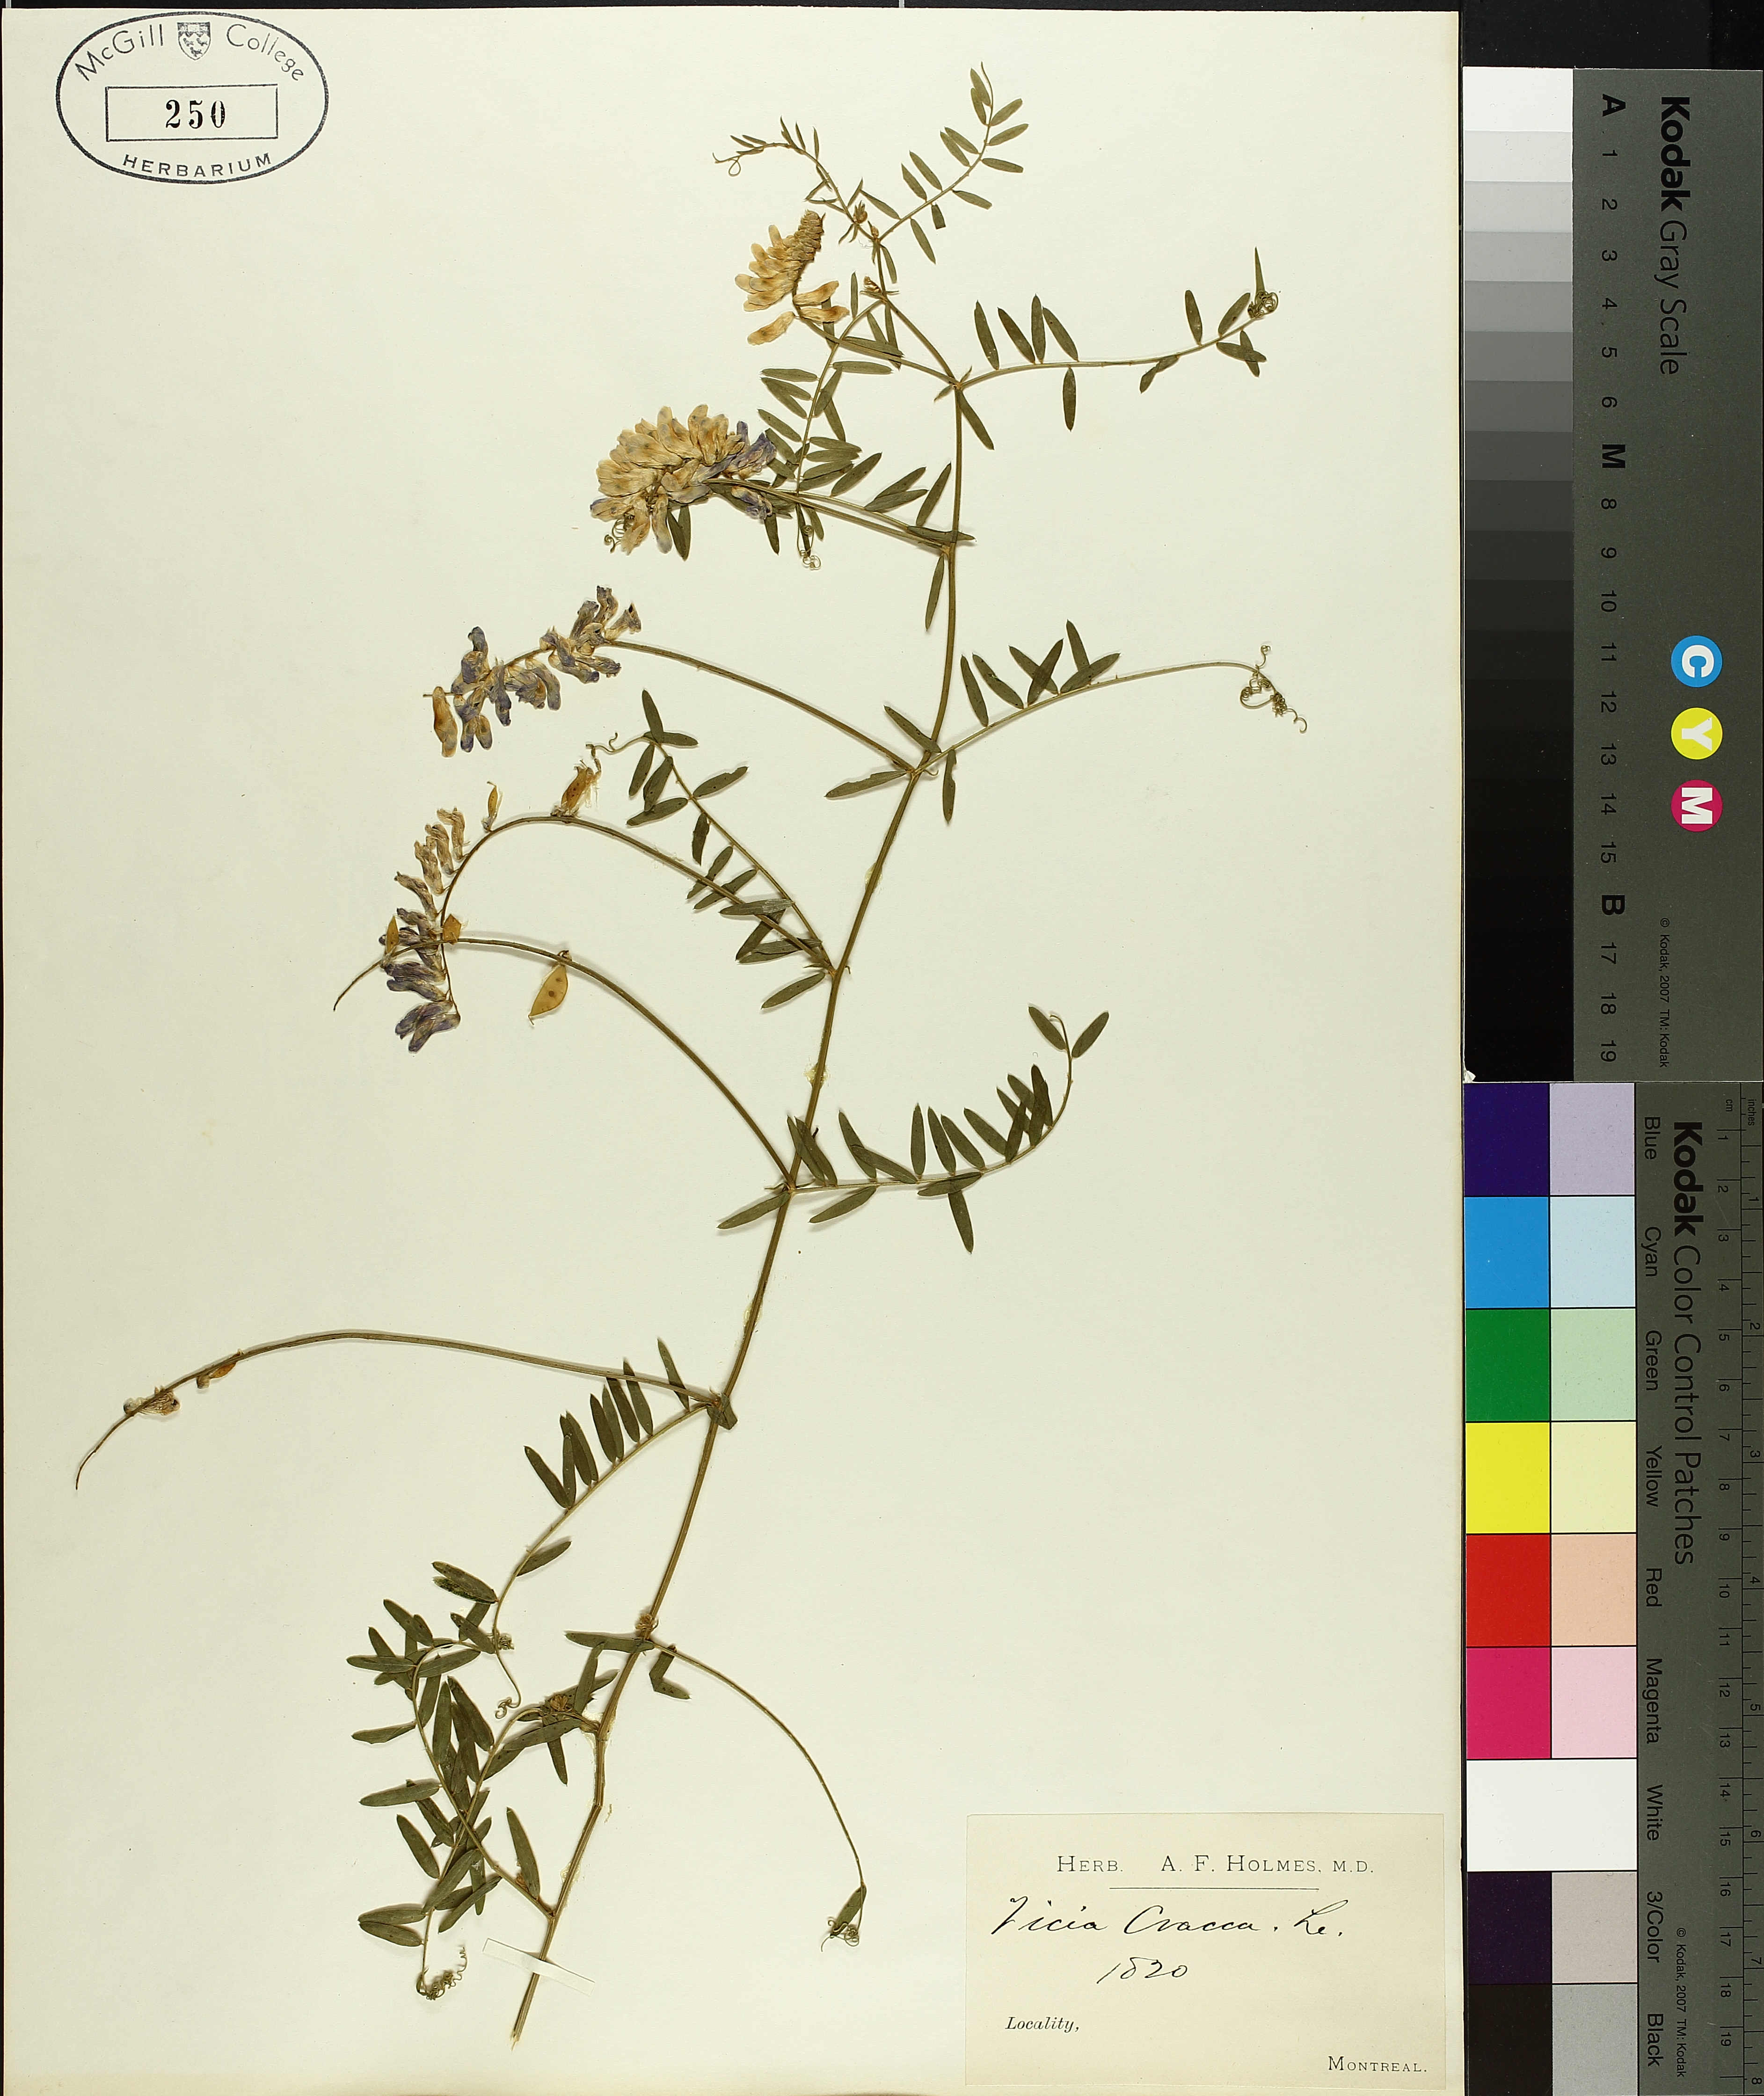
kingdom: Plantae
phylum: Tracheophyta
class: Magnoliopsida
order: Fabales
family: Fabaceae
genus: Vicia
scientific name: Vicia cracca
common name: Bird vetch
